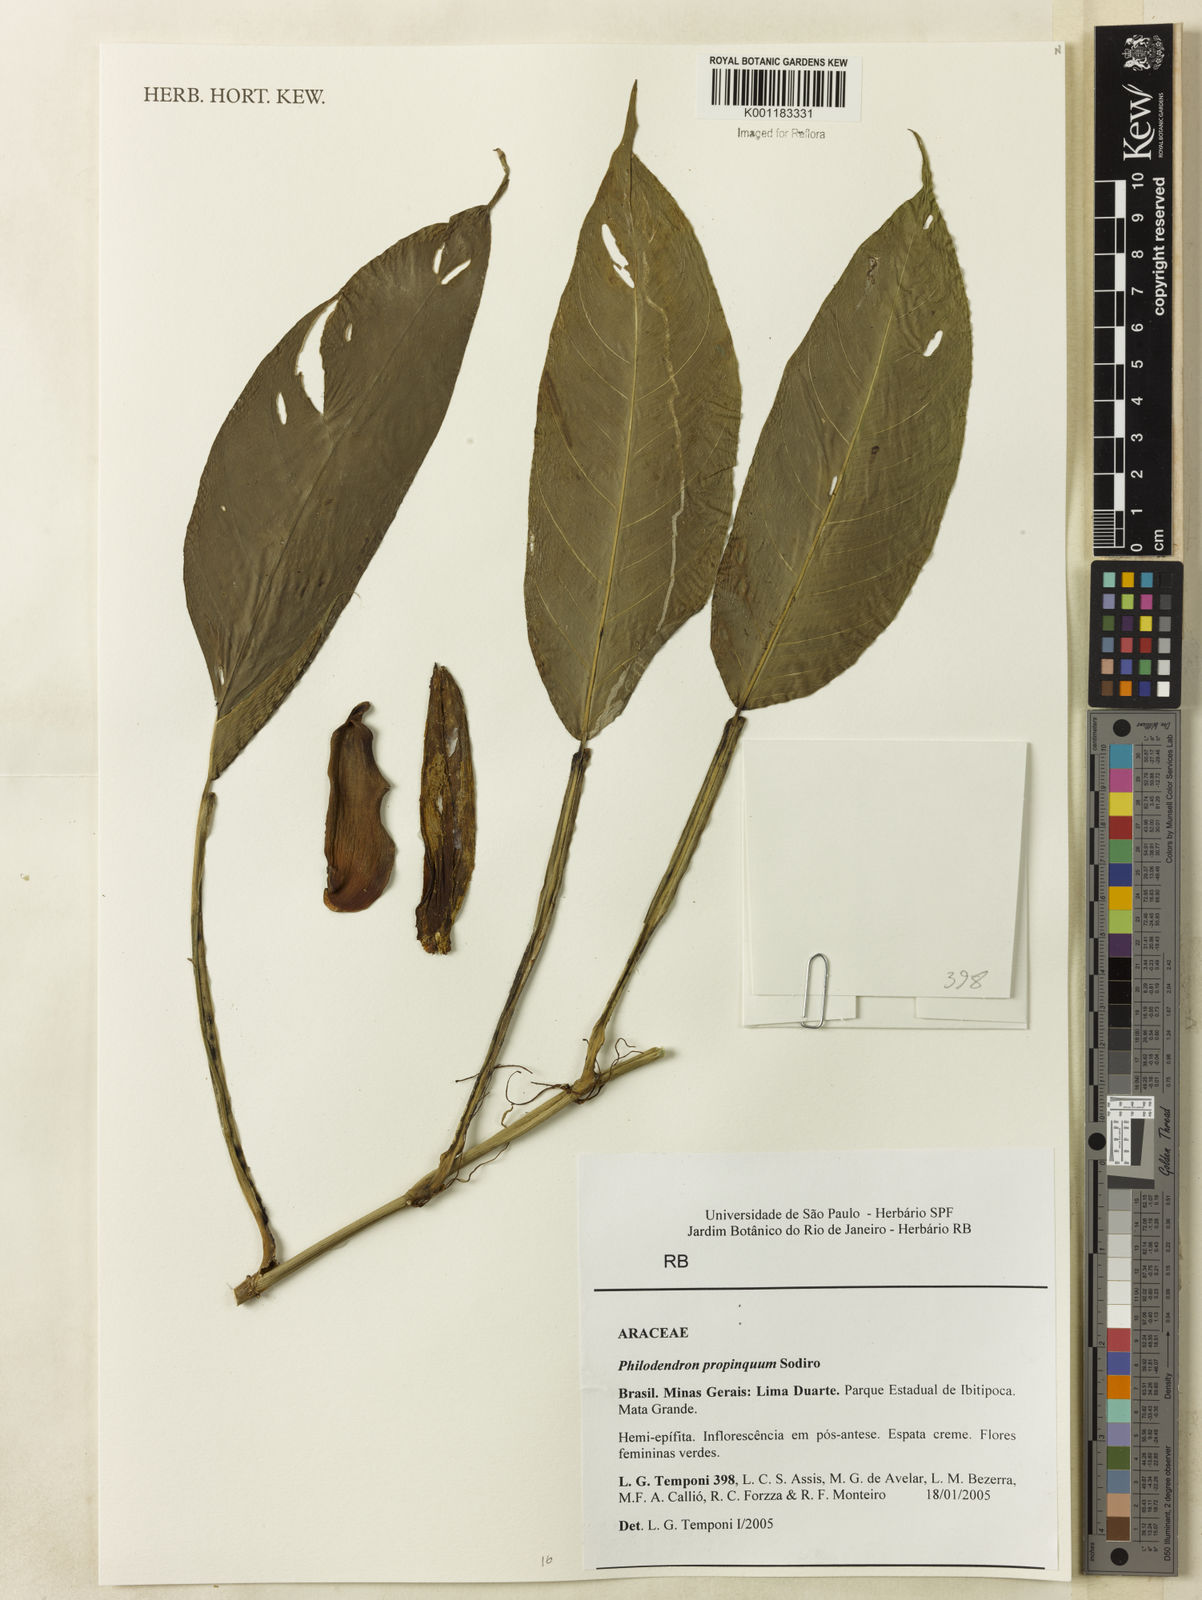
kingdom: Plantae
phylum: Tracheophyta
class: Liliopsida
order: Alismatales
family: Araceae
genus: Philodendron
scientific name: Philodendron propinquum
